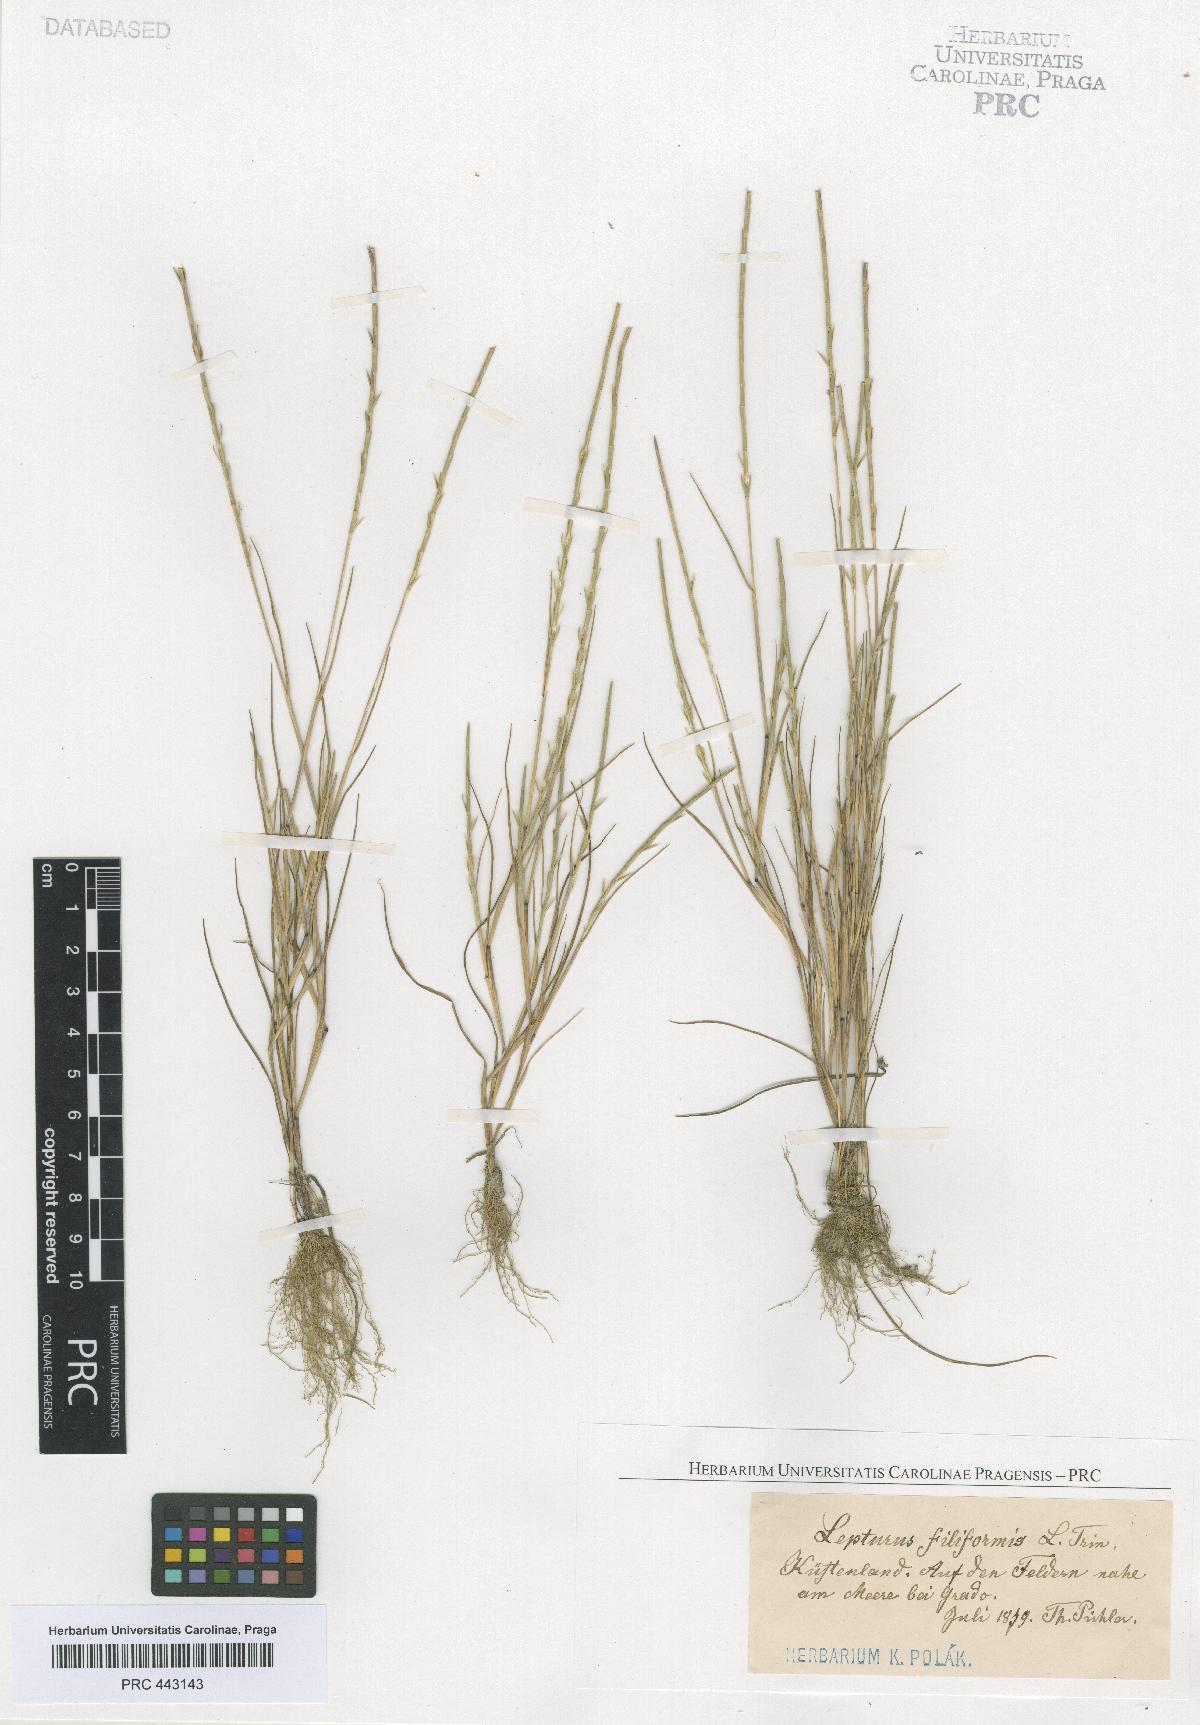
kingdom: Plantae
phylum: Tracheophyta
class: Liliopsida
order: Poales
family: Poaceae
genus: Parapholis
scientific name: Parapholis filiformis
